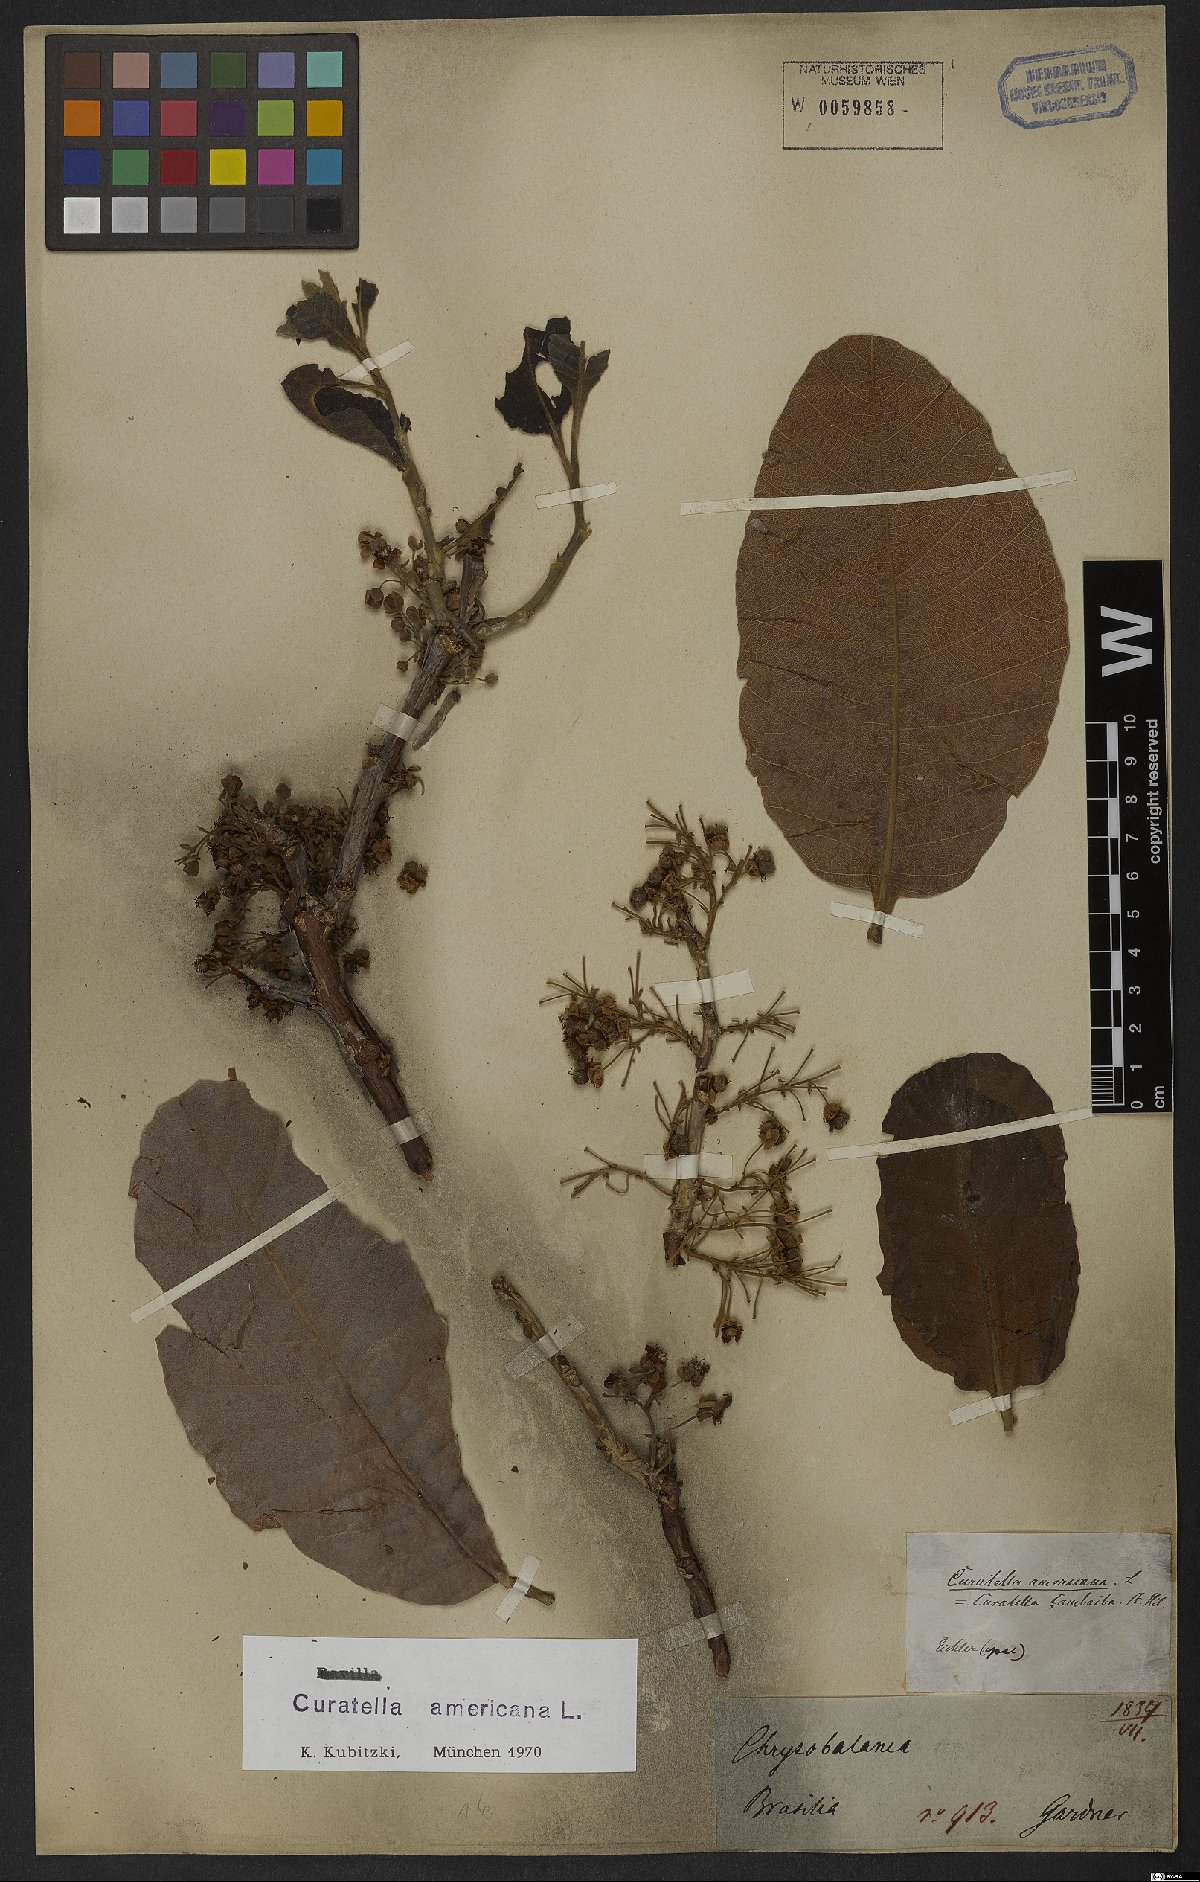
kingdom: Plantae
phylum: Tracheophyta
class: Magnoliopsida
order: Dilleniales
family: Dilleniaceae
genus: Curatella
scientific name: Curatella americana
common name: Sandpaper tree
